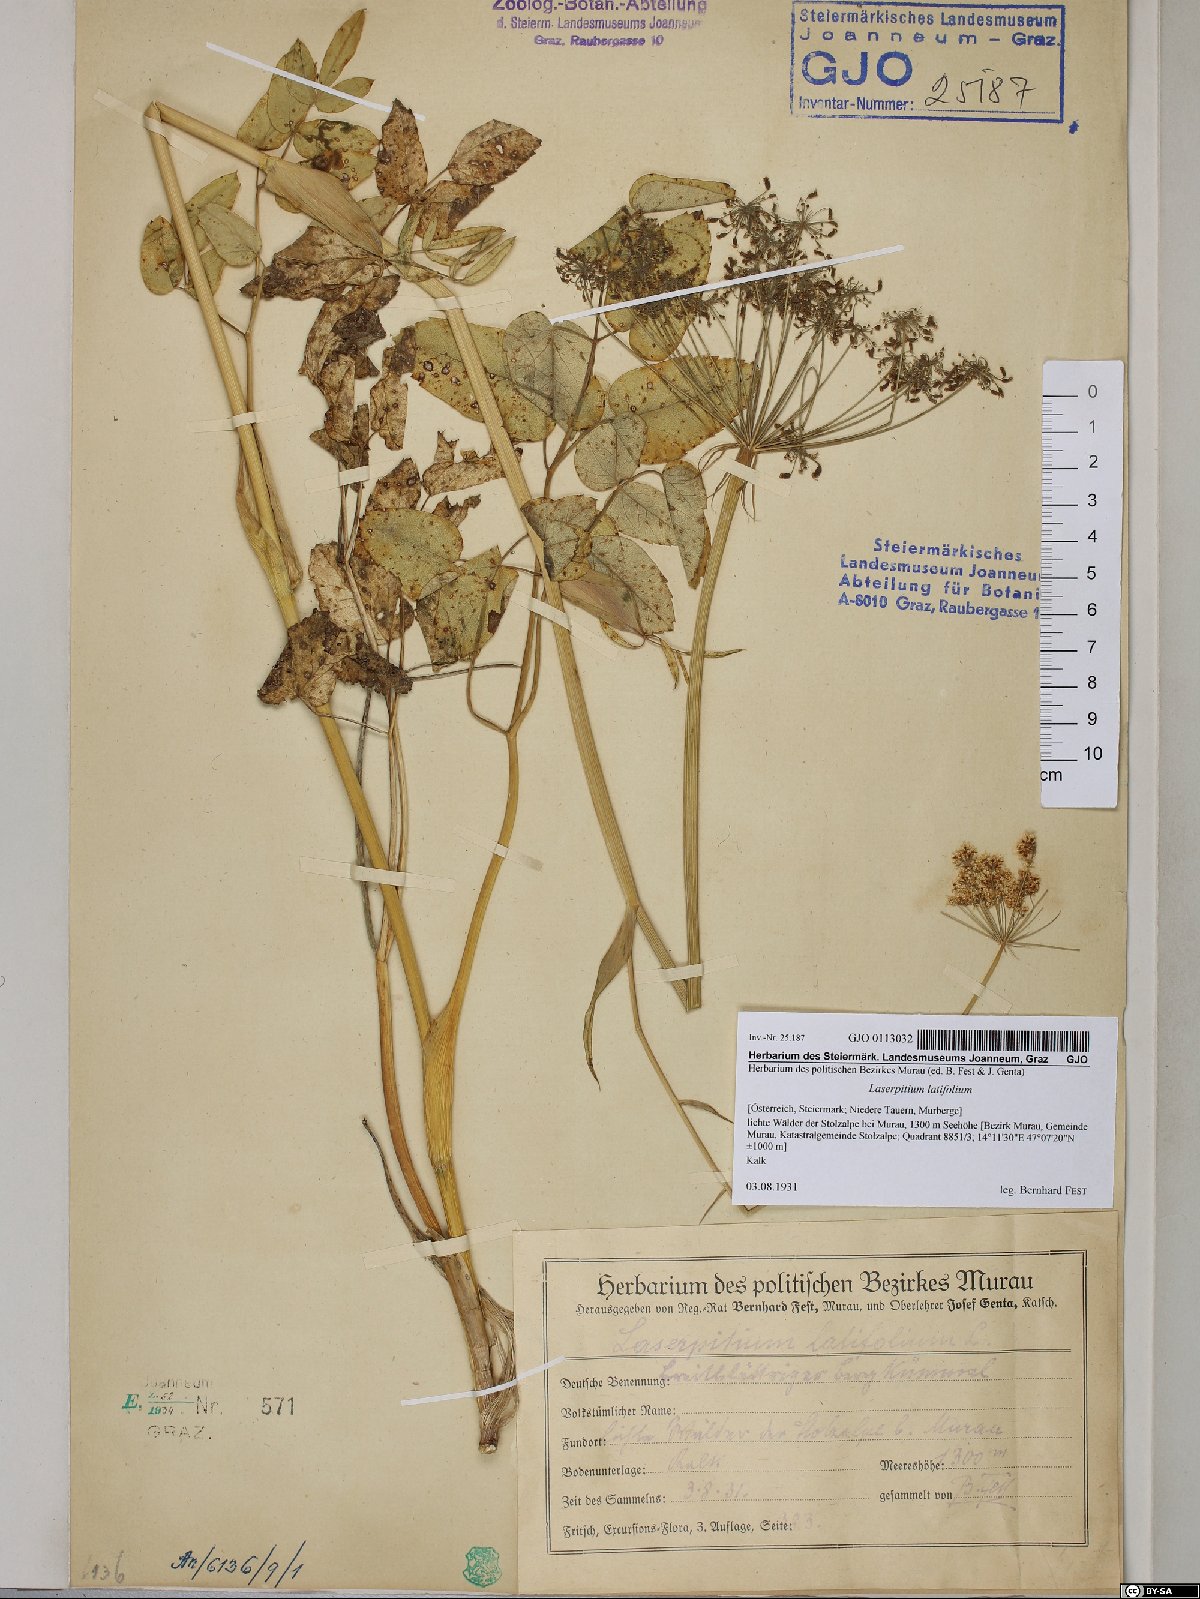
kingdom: Plantae
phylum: Tracheophyta
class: Magnoliopsida
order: Apiales
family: Apiaceae
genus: Laserpitium
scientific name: Laserpitium latifolium
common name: Broadleaf sermountain
